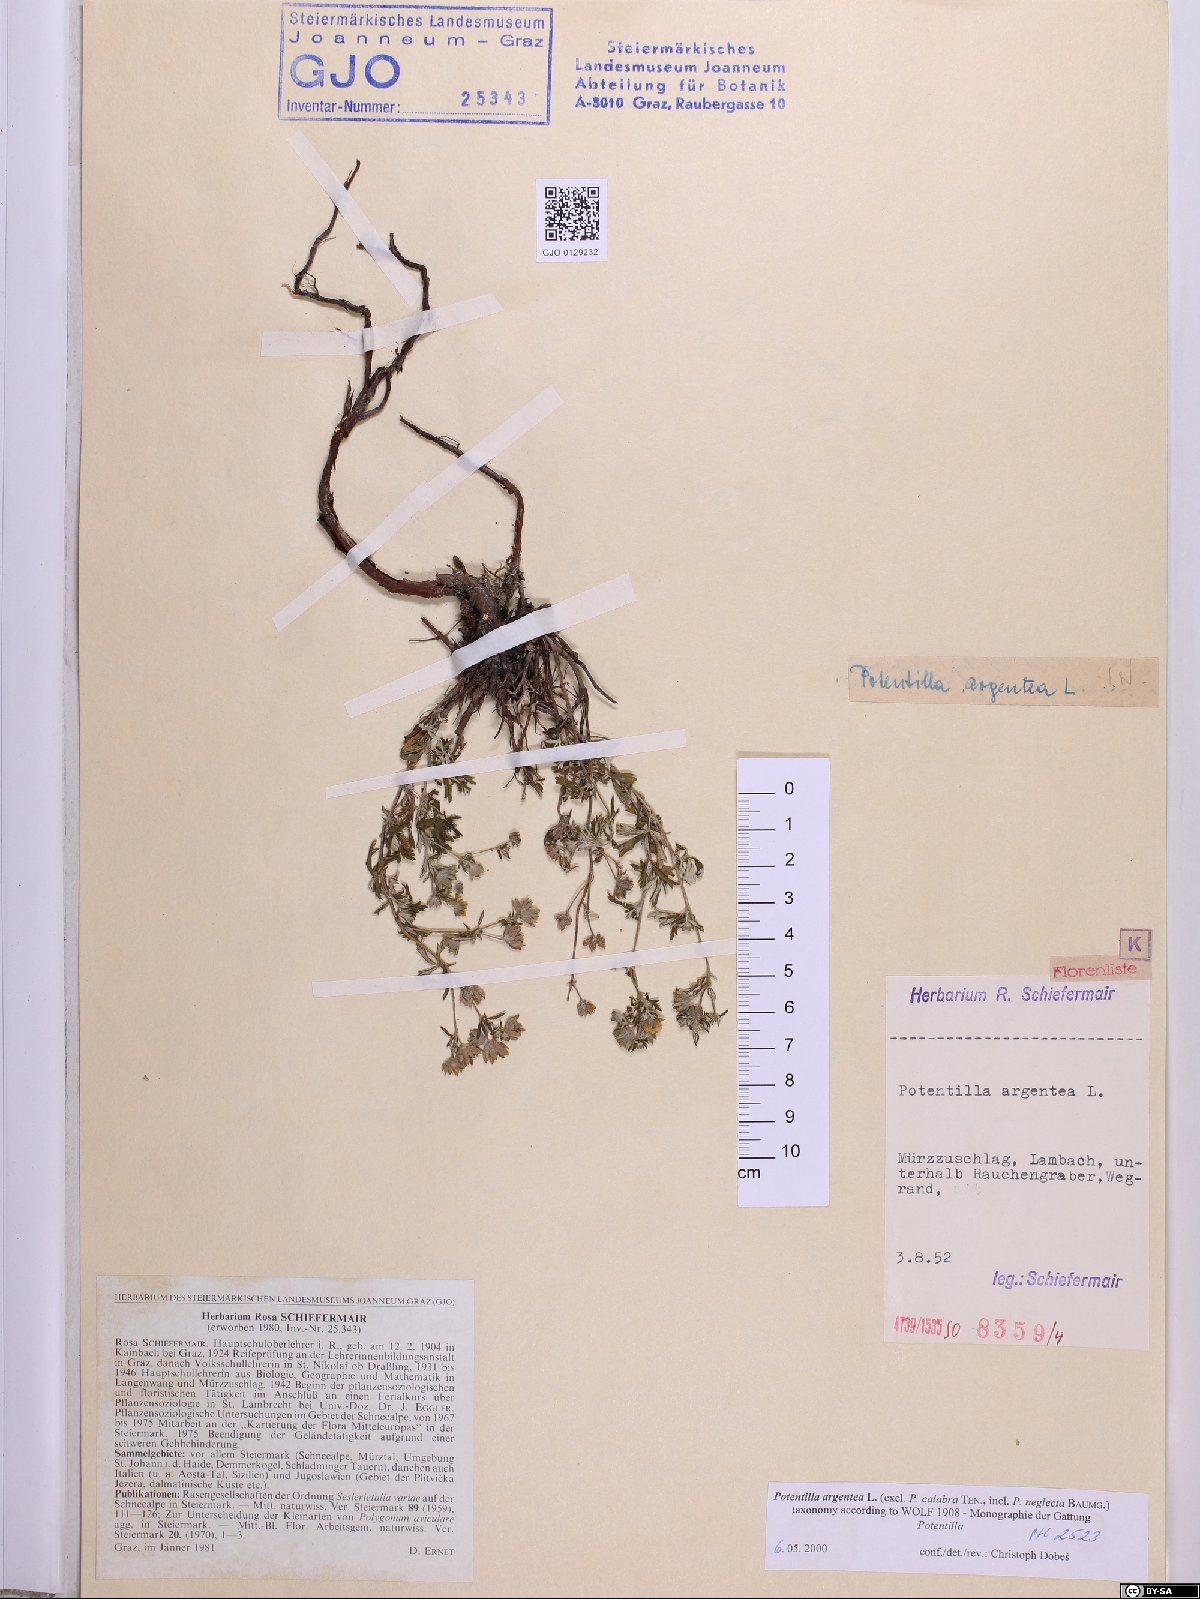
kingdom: Plantae
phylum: Tracheophyta
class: Magnoliopsida
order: Rosales
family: Rosaceae
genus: Potentilla
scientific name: Potentilla argentea
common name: Hoary cinquefoil
